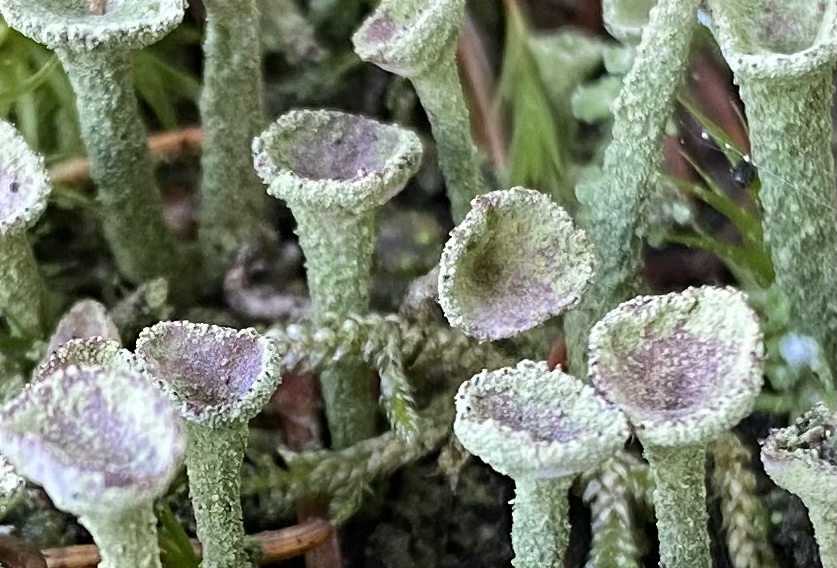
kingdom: Fungi
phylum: Ascomycota
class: Lecanoromycetes
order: Lecanorales
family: Cladoniaceae
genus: Cladonia
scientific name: Cladonia fimbriata
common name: bleggrøn bægerlav
